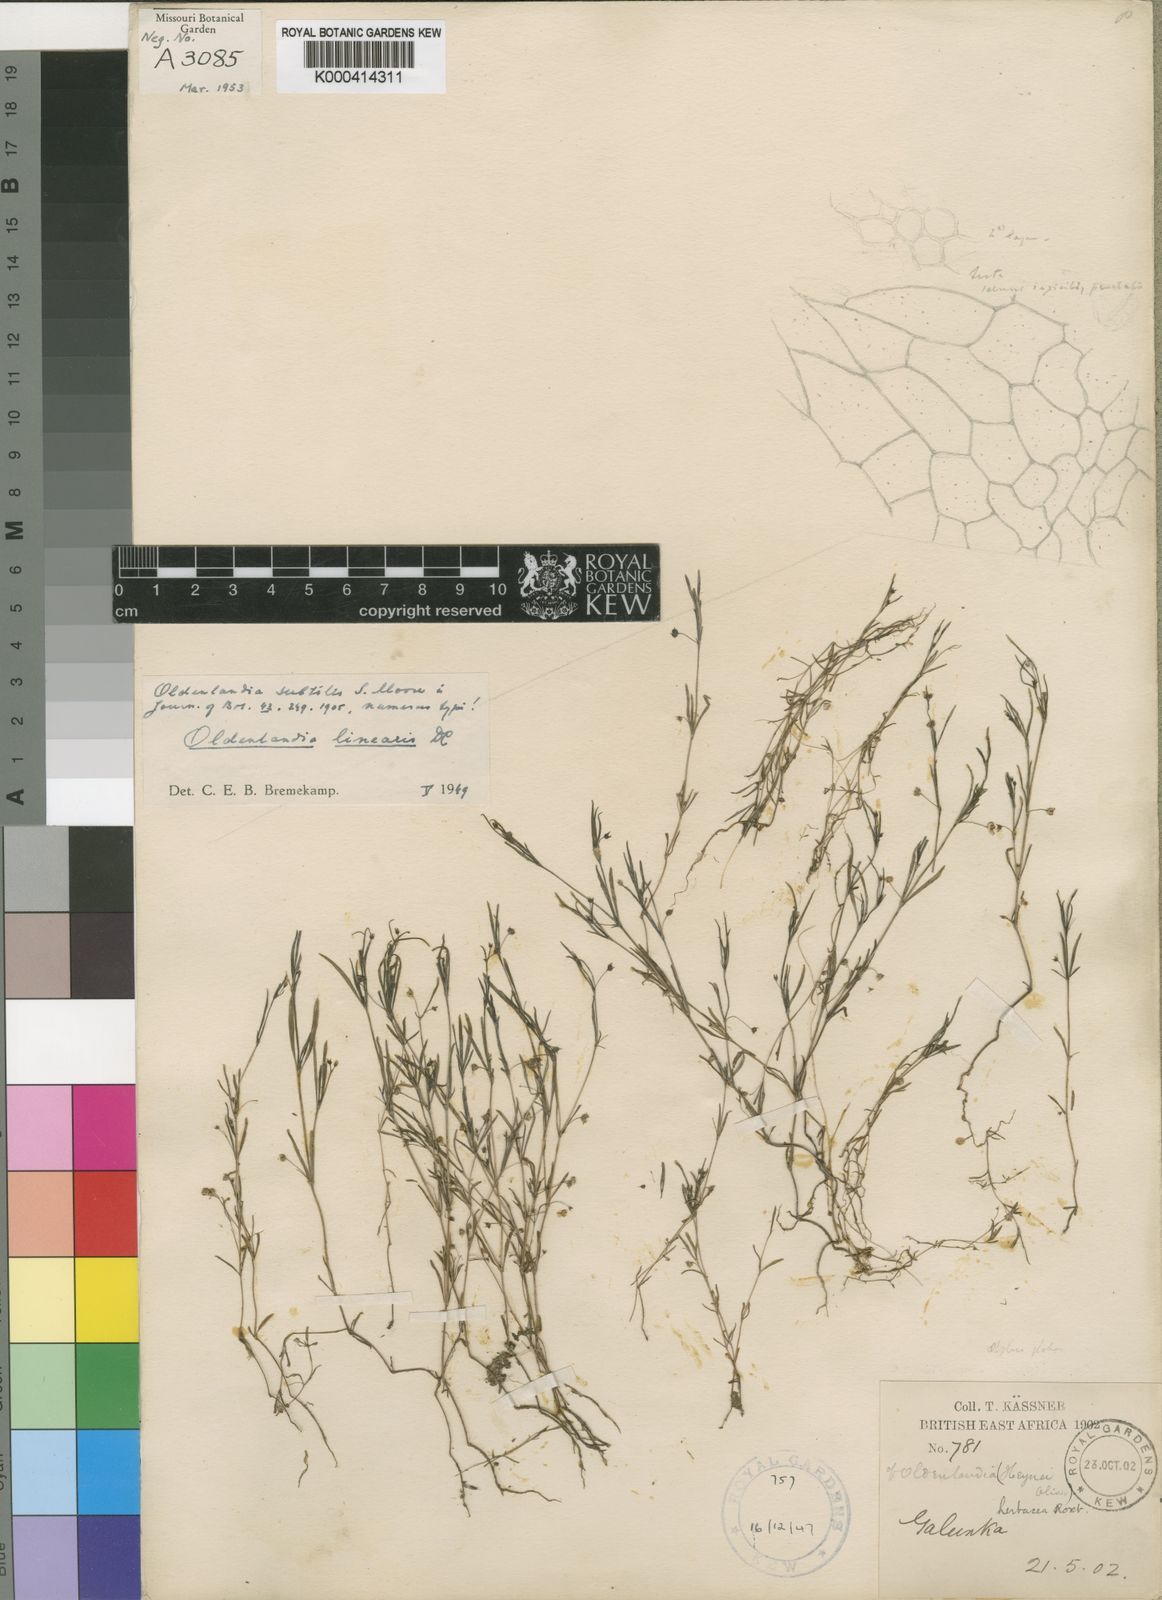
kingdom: Plantae
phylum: Tracheophyta
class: Magnoliopsida
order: Gentianales
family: Rubiaceae
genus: Oldenlandia
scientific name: Oldenlandia corymbosa
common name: Flat-top mille graines
